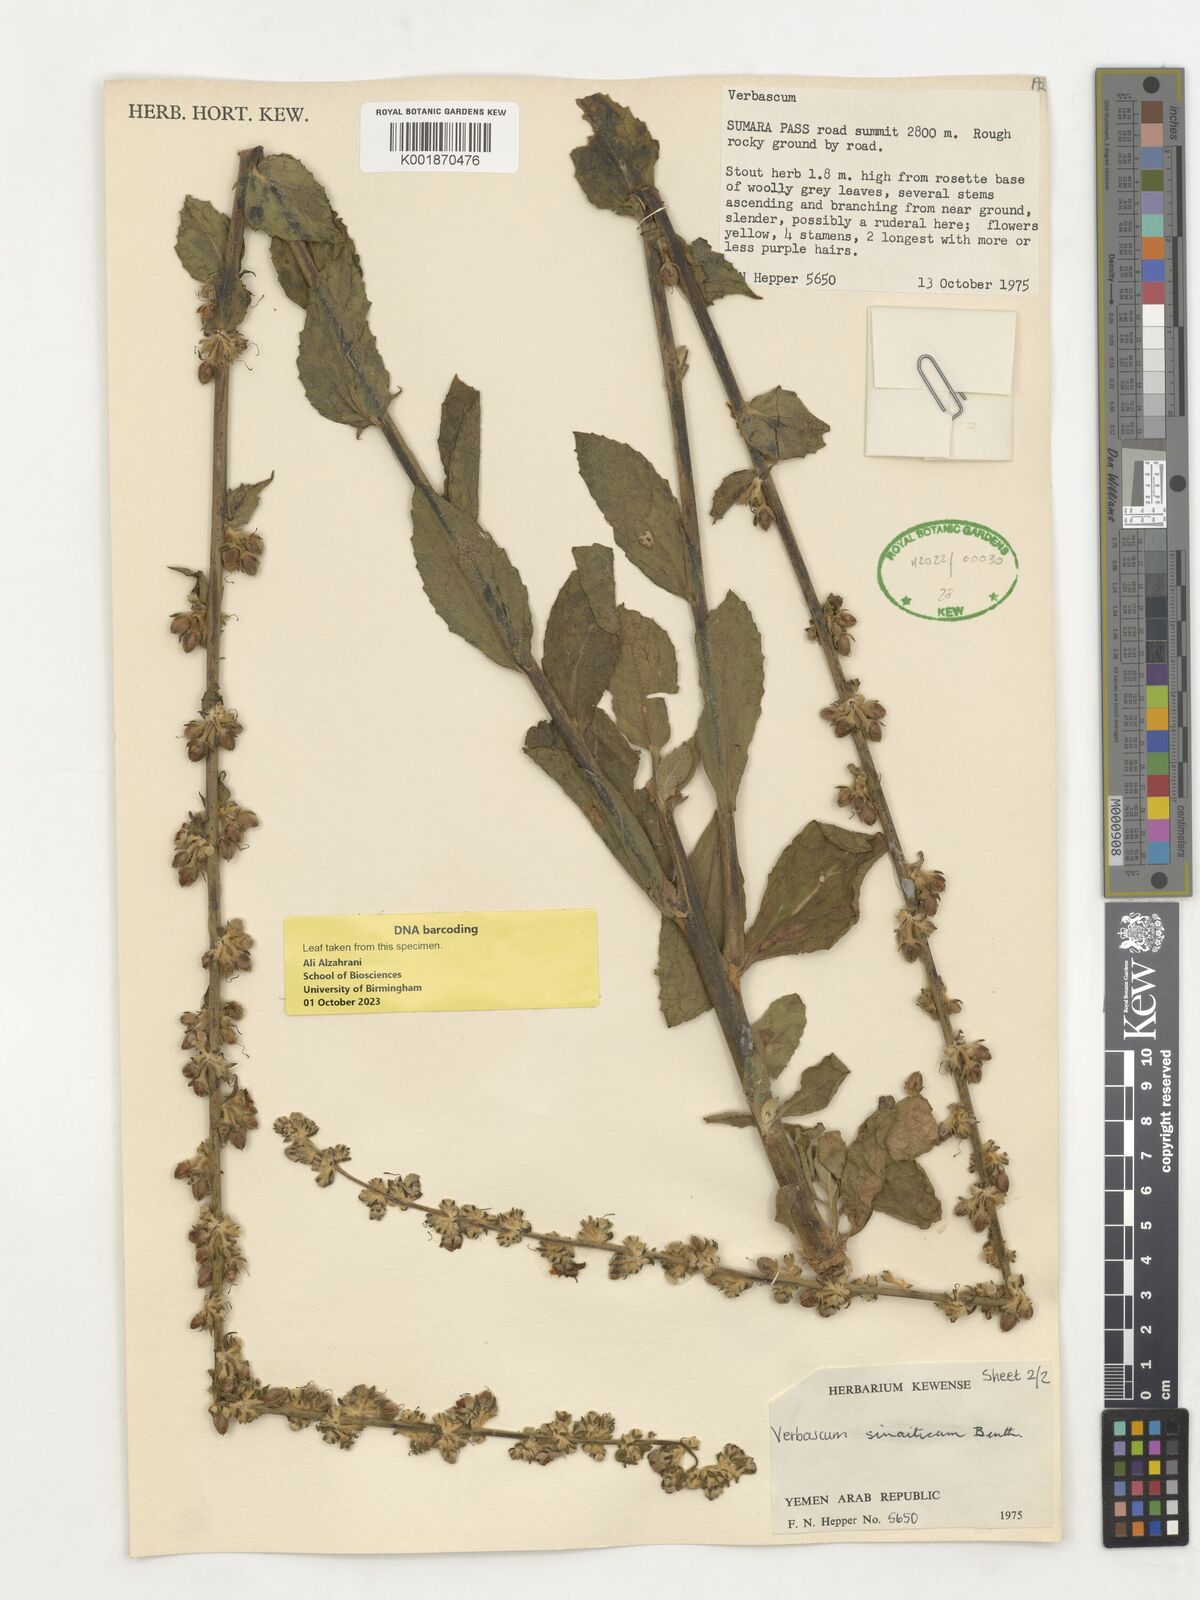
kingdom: Plantae
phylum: Tracheophyta
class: Magnoliopsida
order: Lamiales
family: Scrophulariaceae
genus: Verbascum
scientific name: Verbascum sinaiticum
